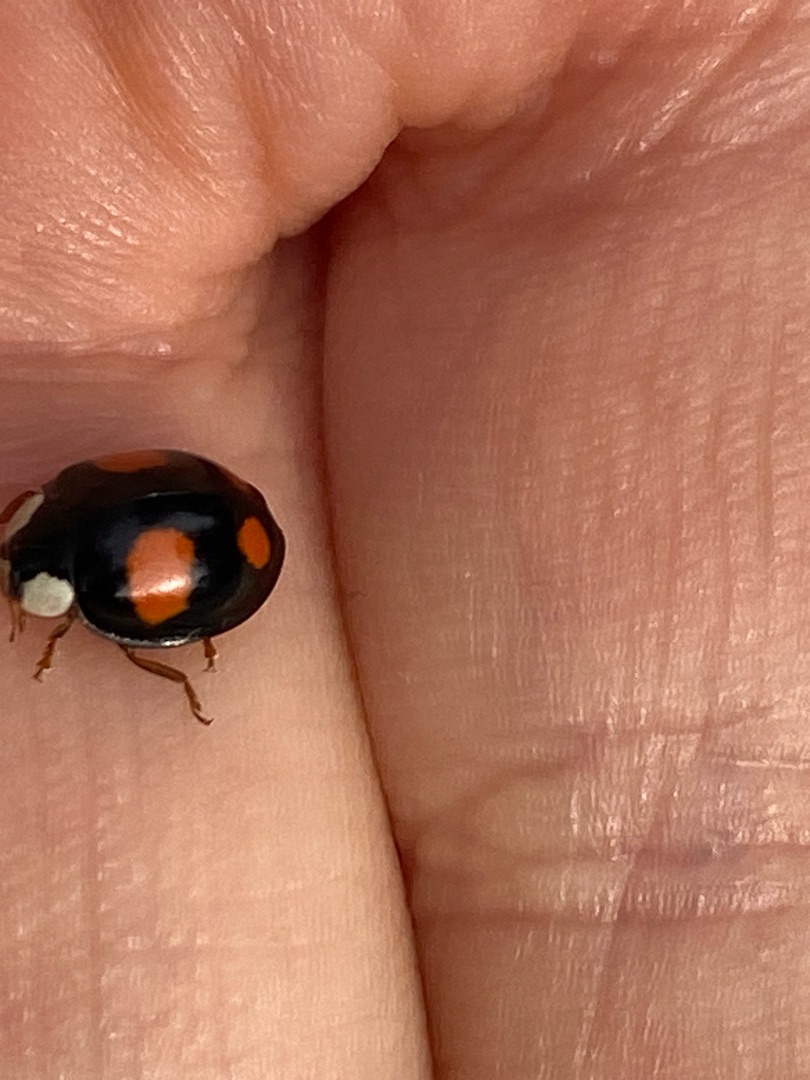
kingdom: Animalia
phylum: Arthropoda
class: Insecta
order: Coleoptera
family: Coccinellidae
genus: Harmonia
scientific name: Harmonia axyridis
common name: Harlekinmariehøne
